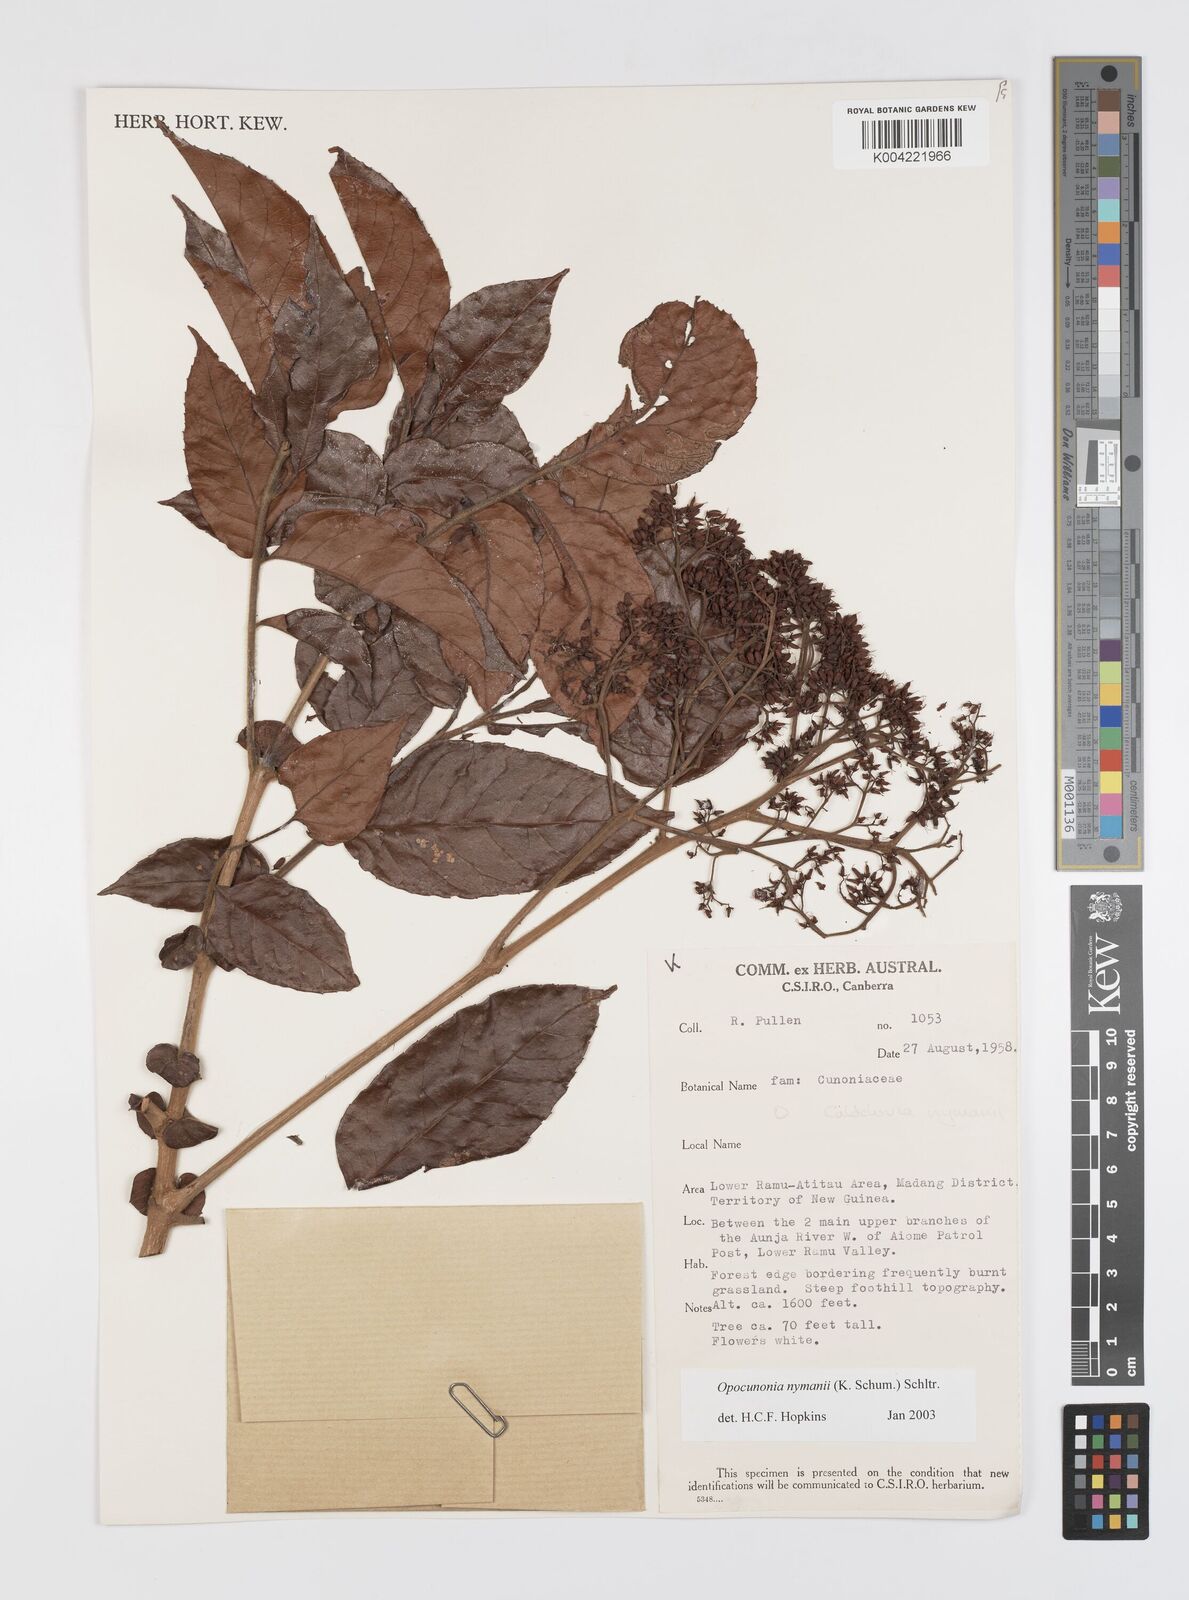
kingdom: Plantae
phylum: Tracheophyta
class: Magnoliopsida
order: Oxalidales
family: Cunoniaceae
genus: Opocunonia
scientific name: Opocunonia nymanii
